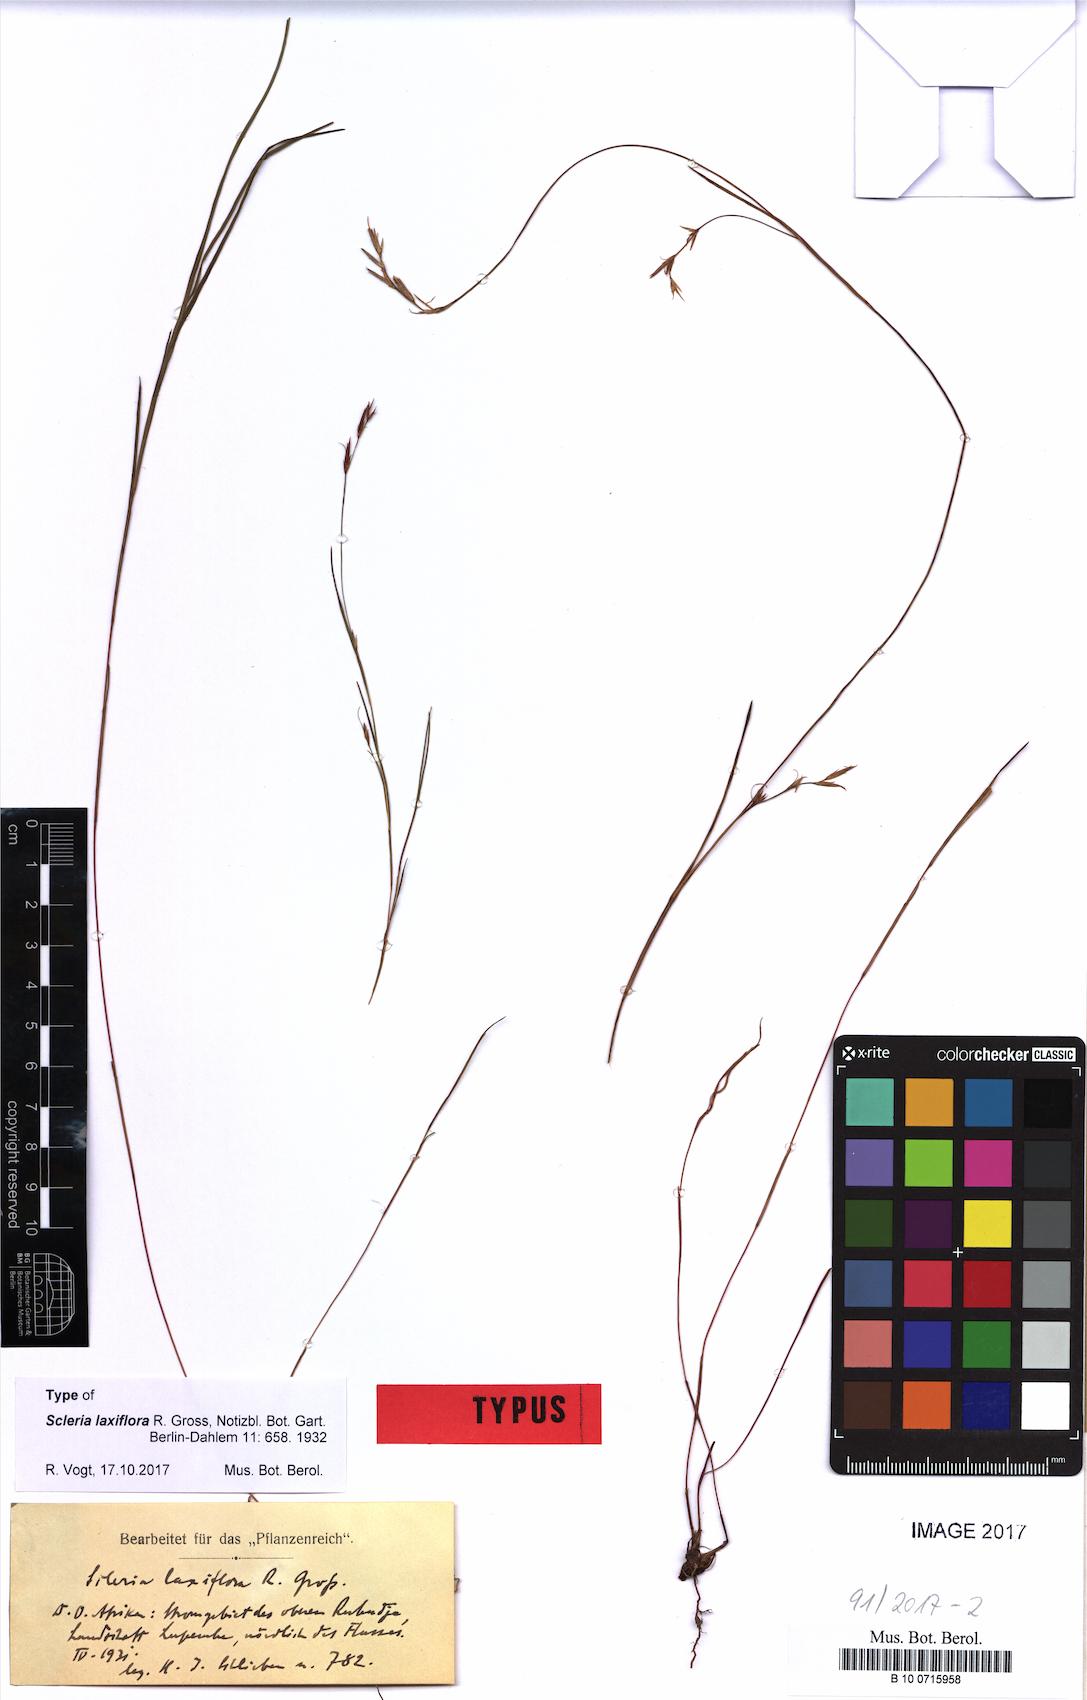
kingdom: Plantae
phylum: Tracheophyta
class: Liliopsida
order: Poales
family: Cyperaceae
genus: Scleria
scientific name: Scleria laxiflora
